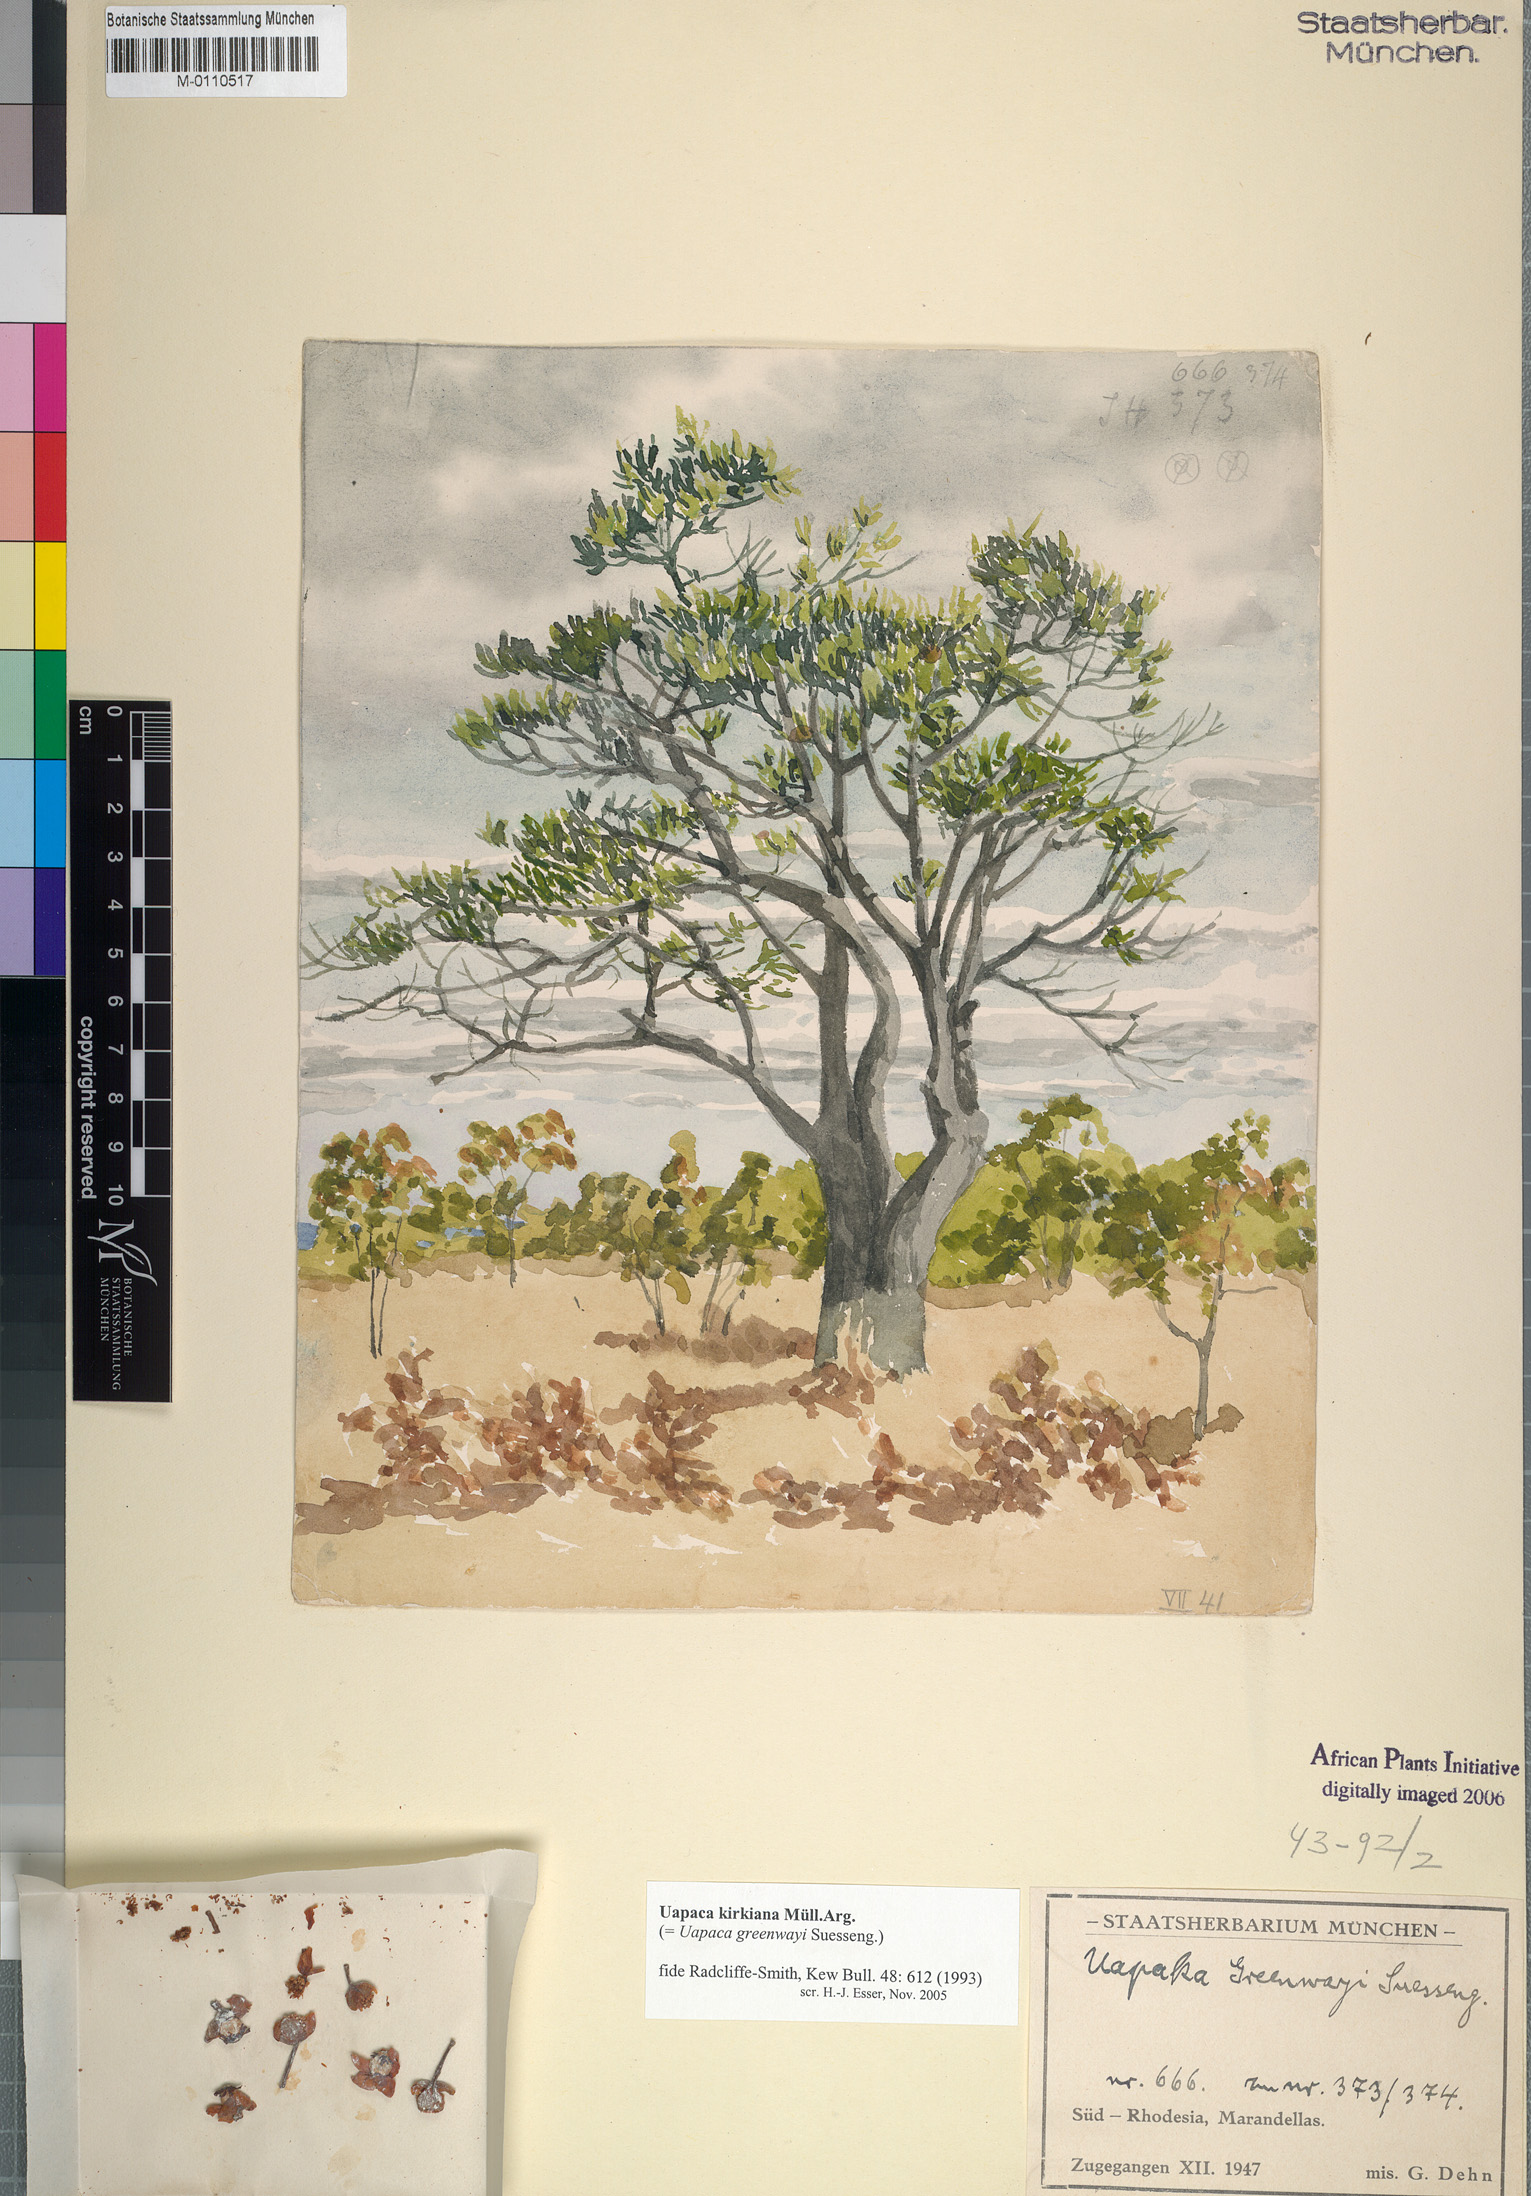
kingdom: Plantae
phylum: Tracheophyta
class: Magnoliopsida
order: Malpighiales
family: Phyllanthaceae
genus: Uapaca
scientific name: Uapaca kirkiana
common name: Wild loquat
